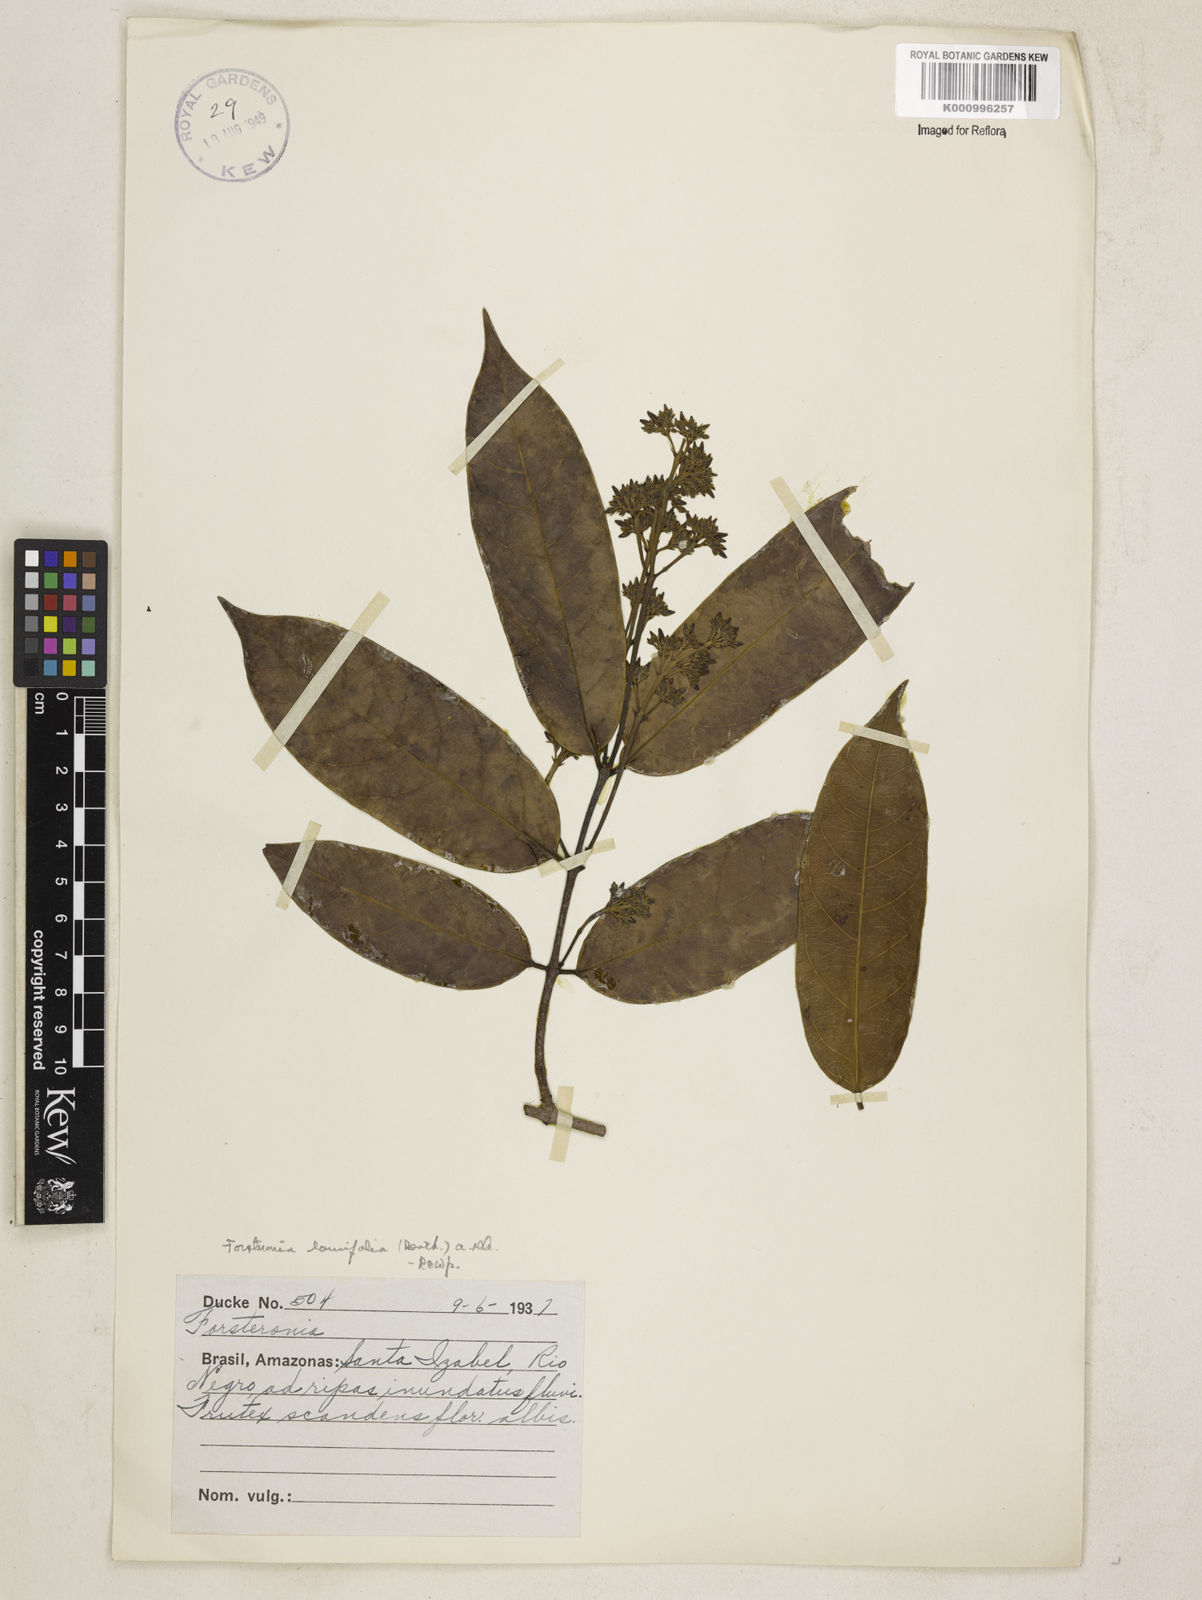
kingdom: Plantae
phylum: Tracheophyta
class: Magnoliopsida
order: Gentianales
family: Apocynaceae
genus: Forsteronia
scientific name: Forsteronia laurifolia
